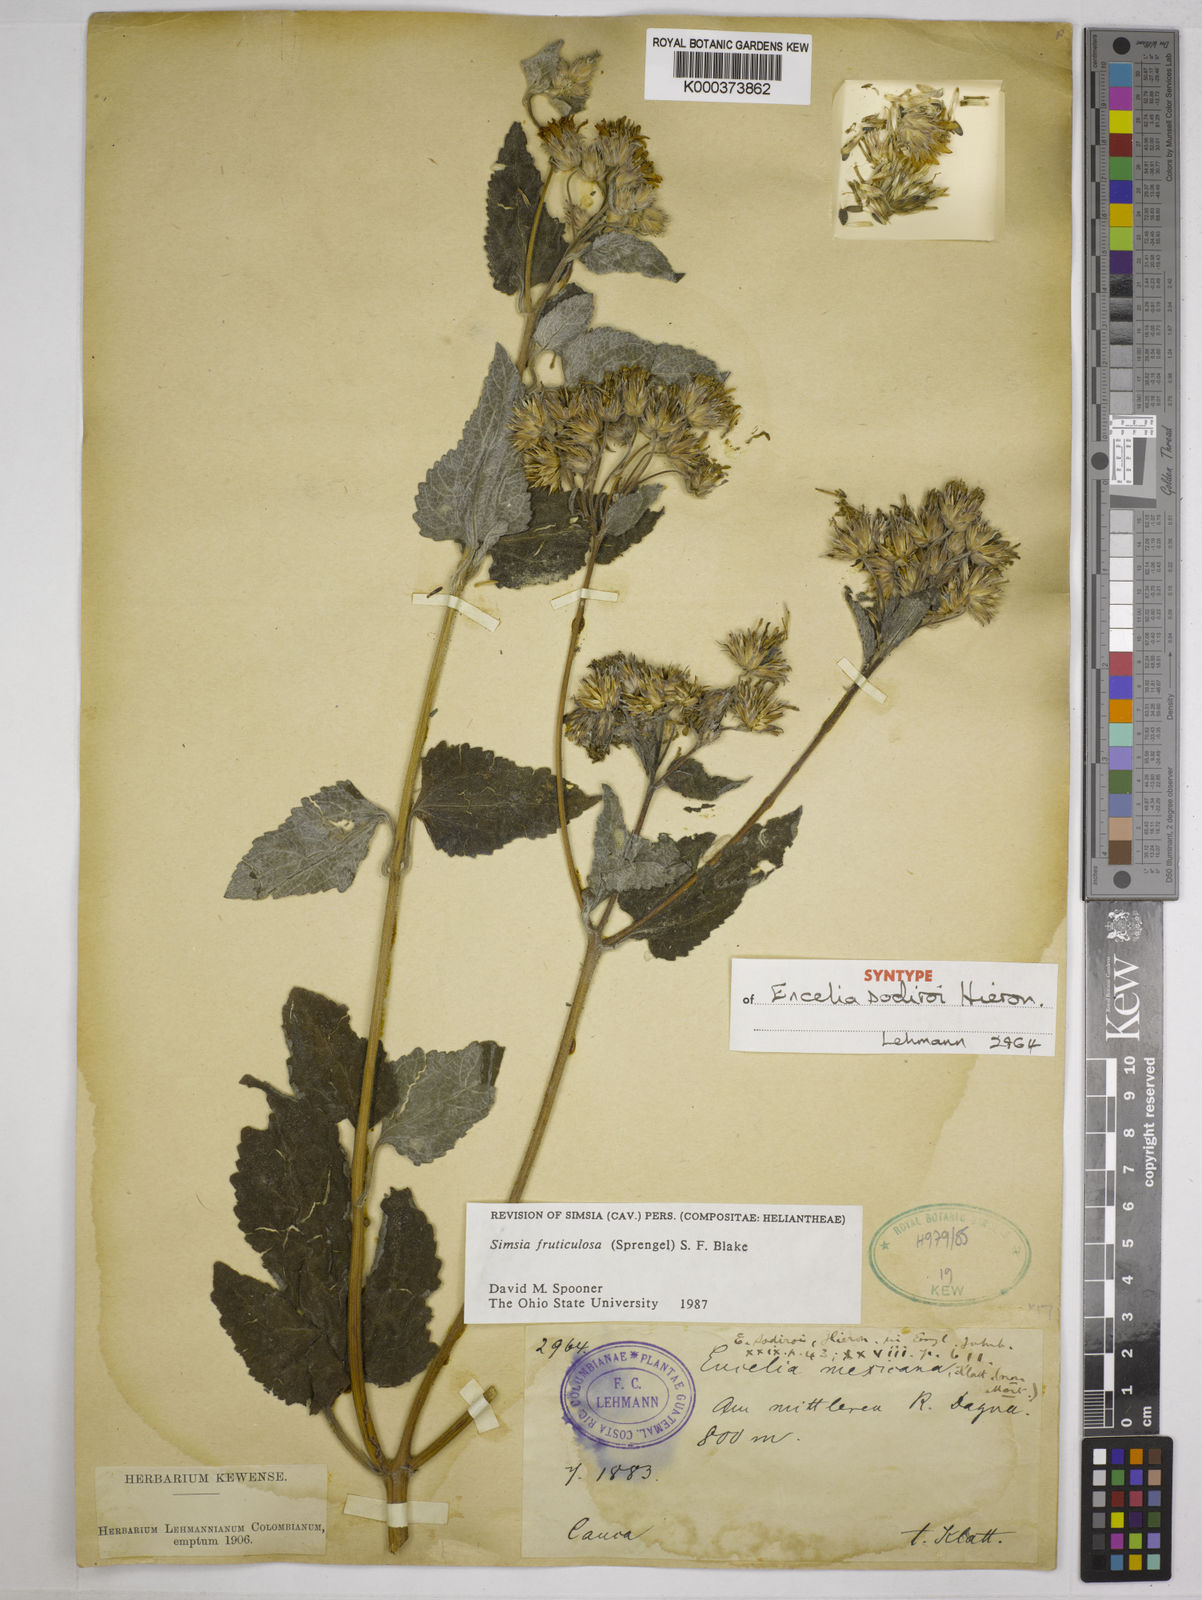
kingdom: Plantae
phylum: Tracheophyta
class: Magnoliopsida
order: Asterales
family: Asteraceae
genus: Simsia
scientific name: Simsia fruticulosa
